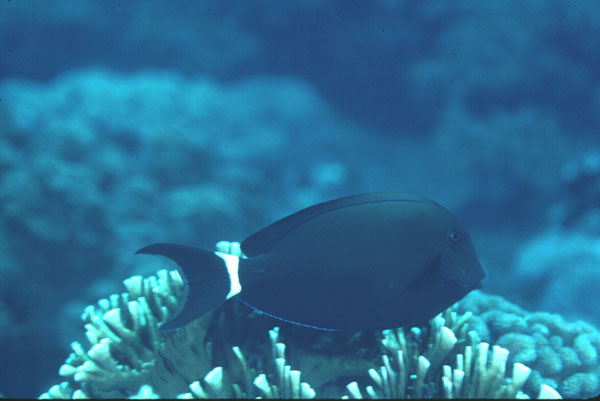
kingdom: Animalia
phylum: Chordata
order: Perciformes
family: Acanthuridae
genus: Acanthurus
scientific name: Acanthurus auranticavus
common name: Orange-socket surgeonfish
